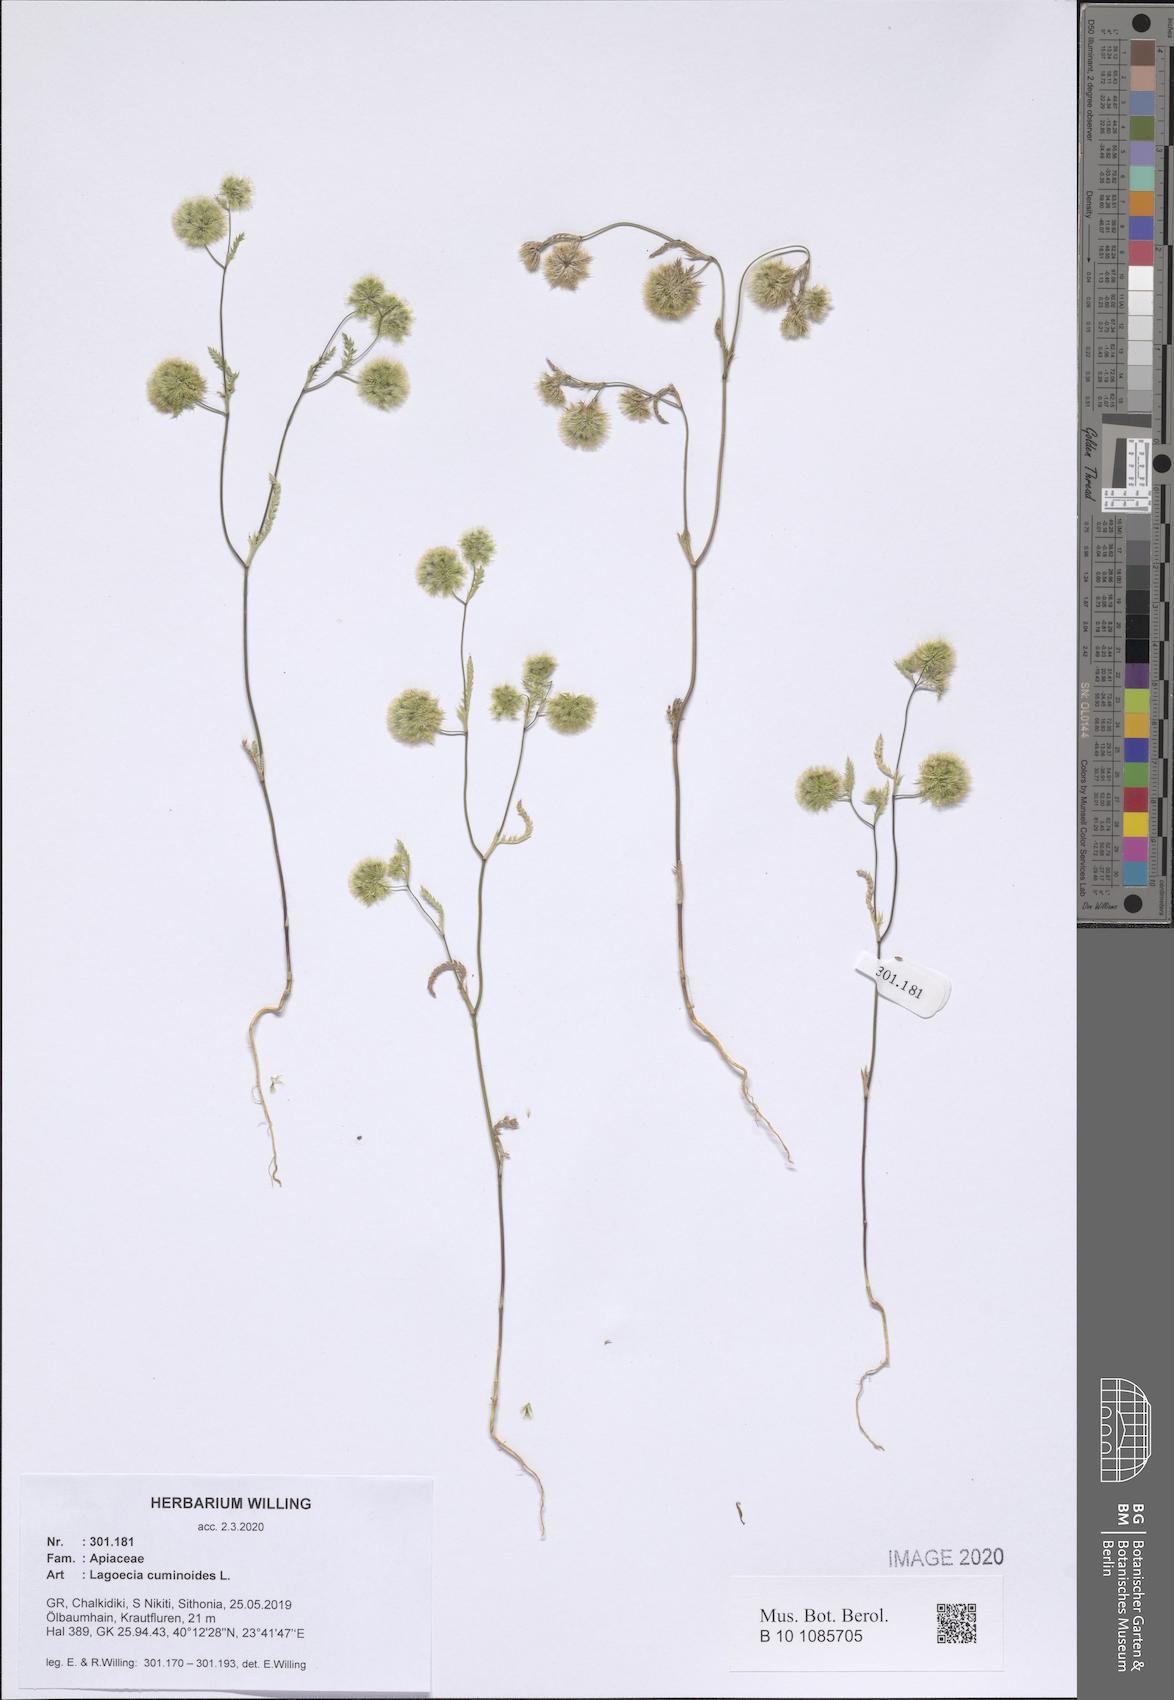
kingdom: Plantae
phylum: Tracheophyta
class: Magnoliopsida
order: Apiales
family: Apiaceae
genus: Lagoecia
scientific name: Lagoecia cuminoides
